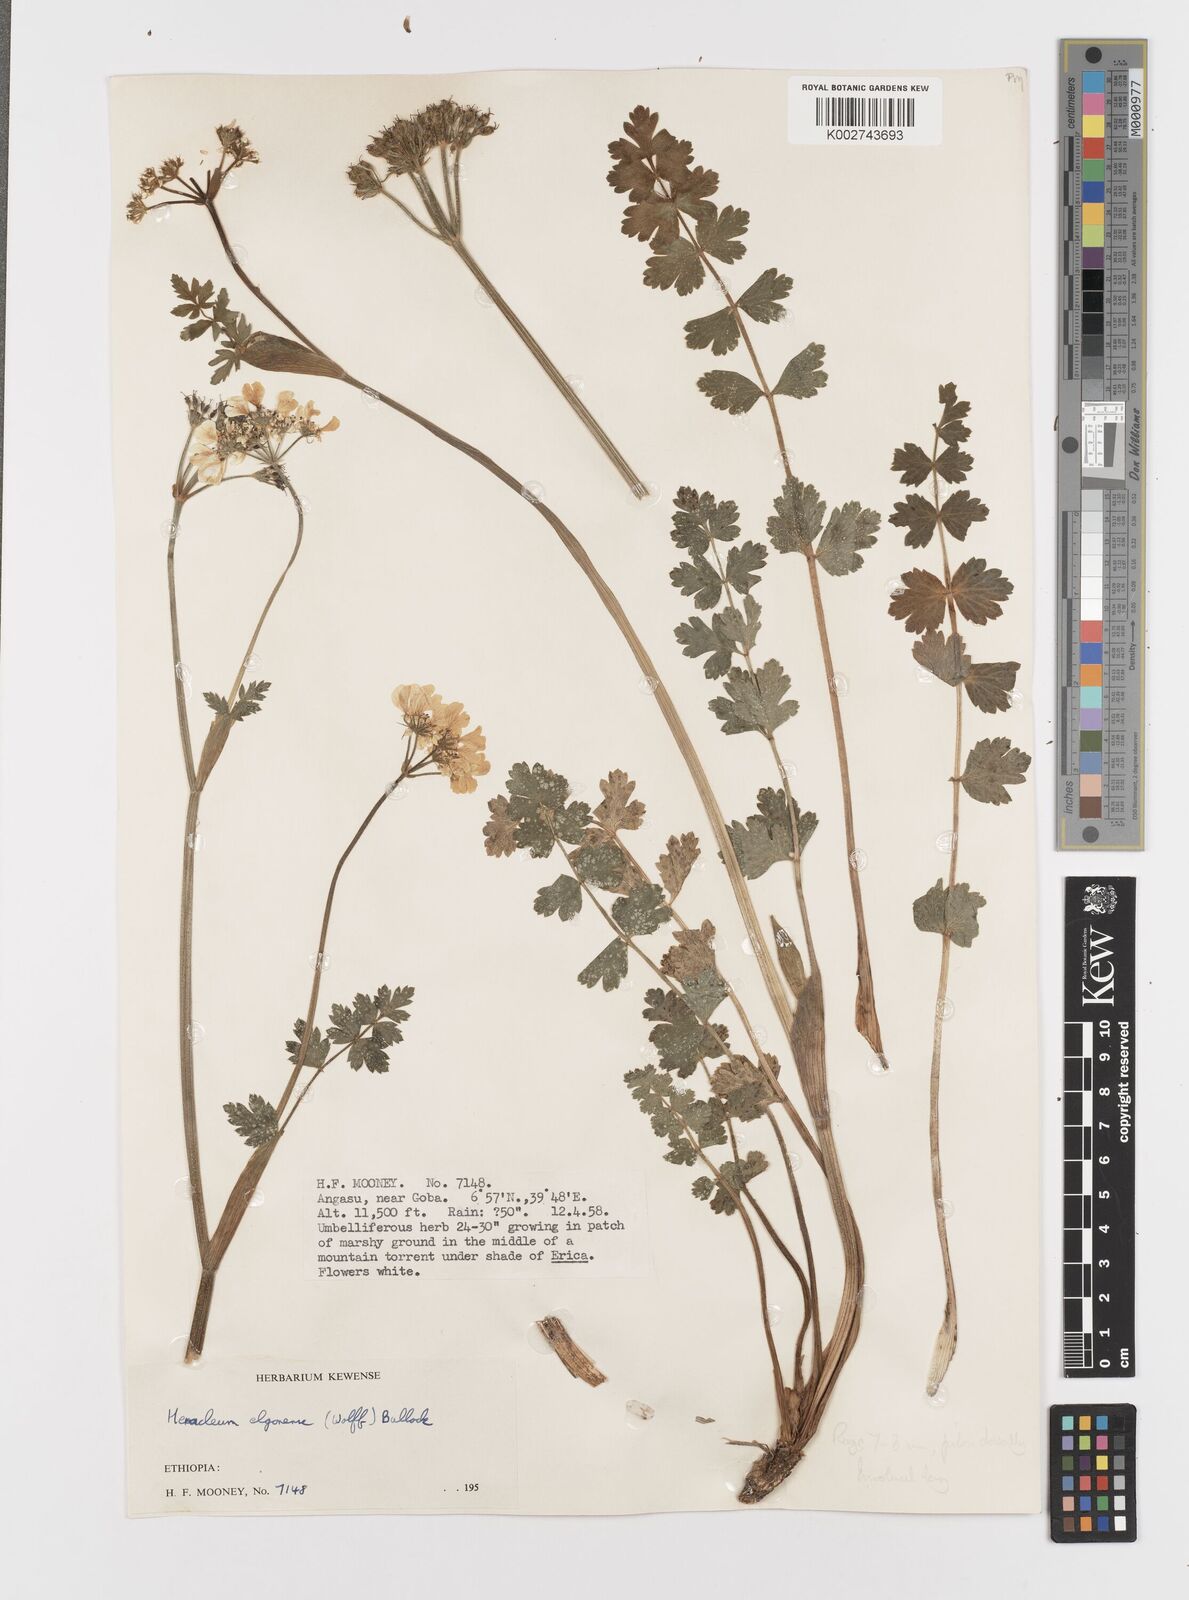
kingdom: Plantae
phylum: Tracheophyta
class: Magnoliopsida
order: Apiales
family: Apiaceae
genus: Heracleum
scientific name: Heracleum abyssinicum
